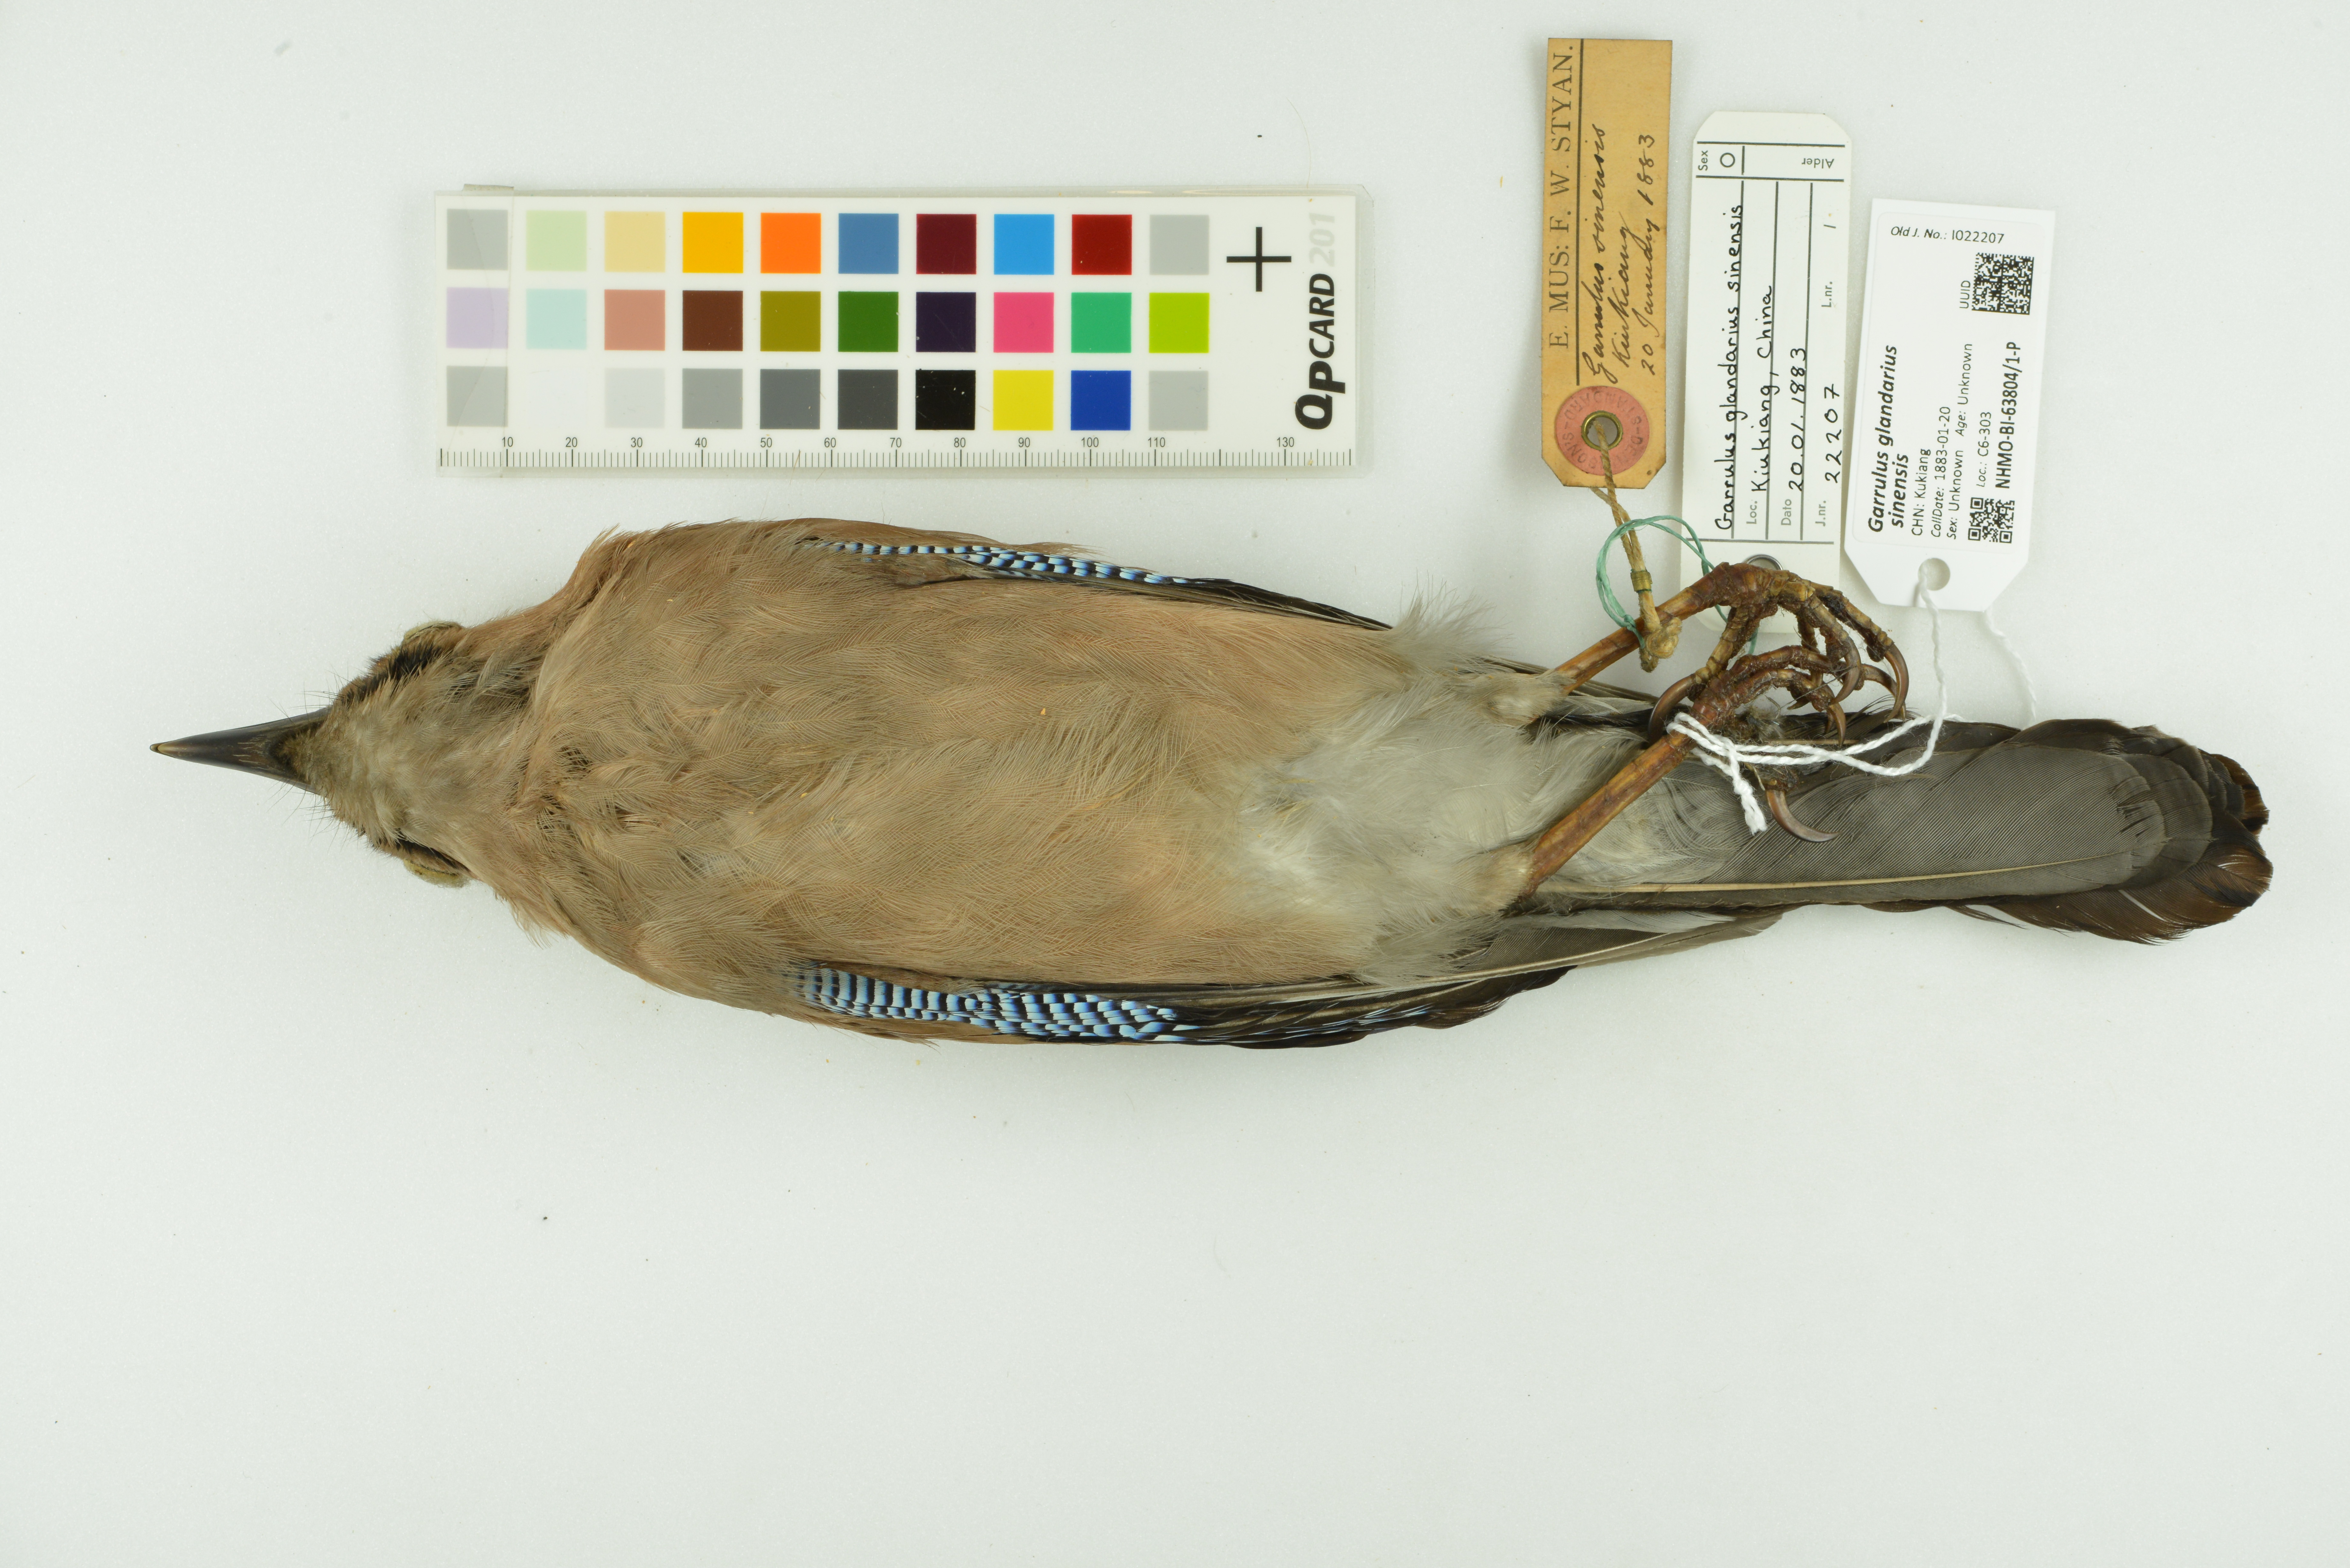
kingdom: Animalia
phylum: Chordata
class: Aves
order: Passeriformes
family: Corvidae
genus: Garrulus
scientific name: Garrulus glandarius
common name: Eurasian jay
